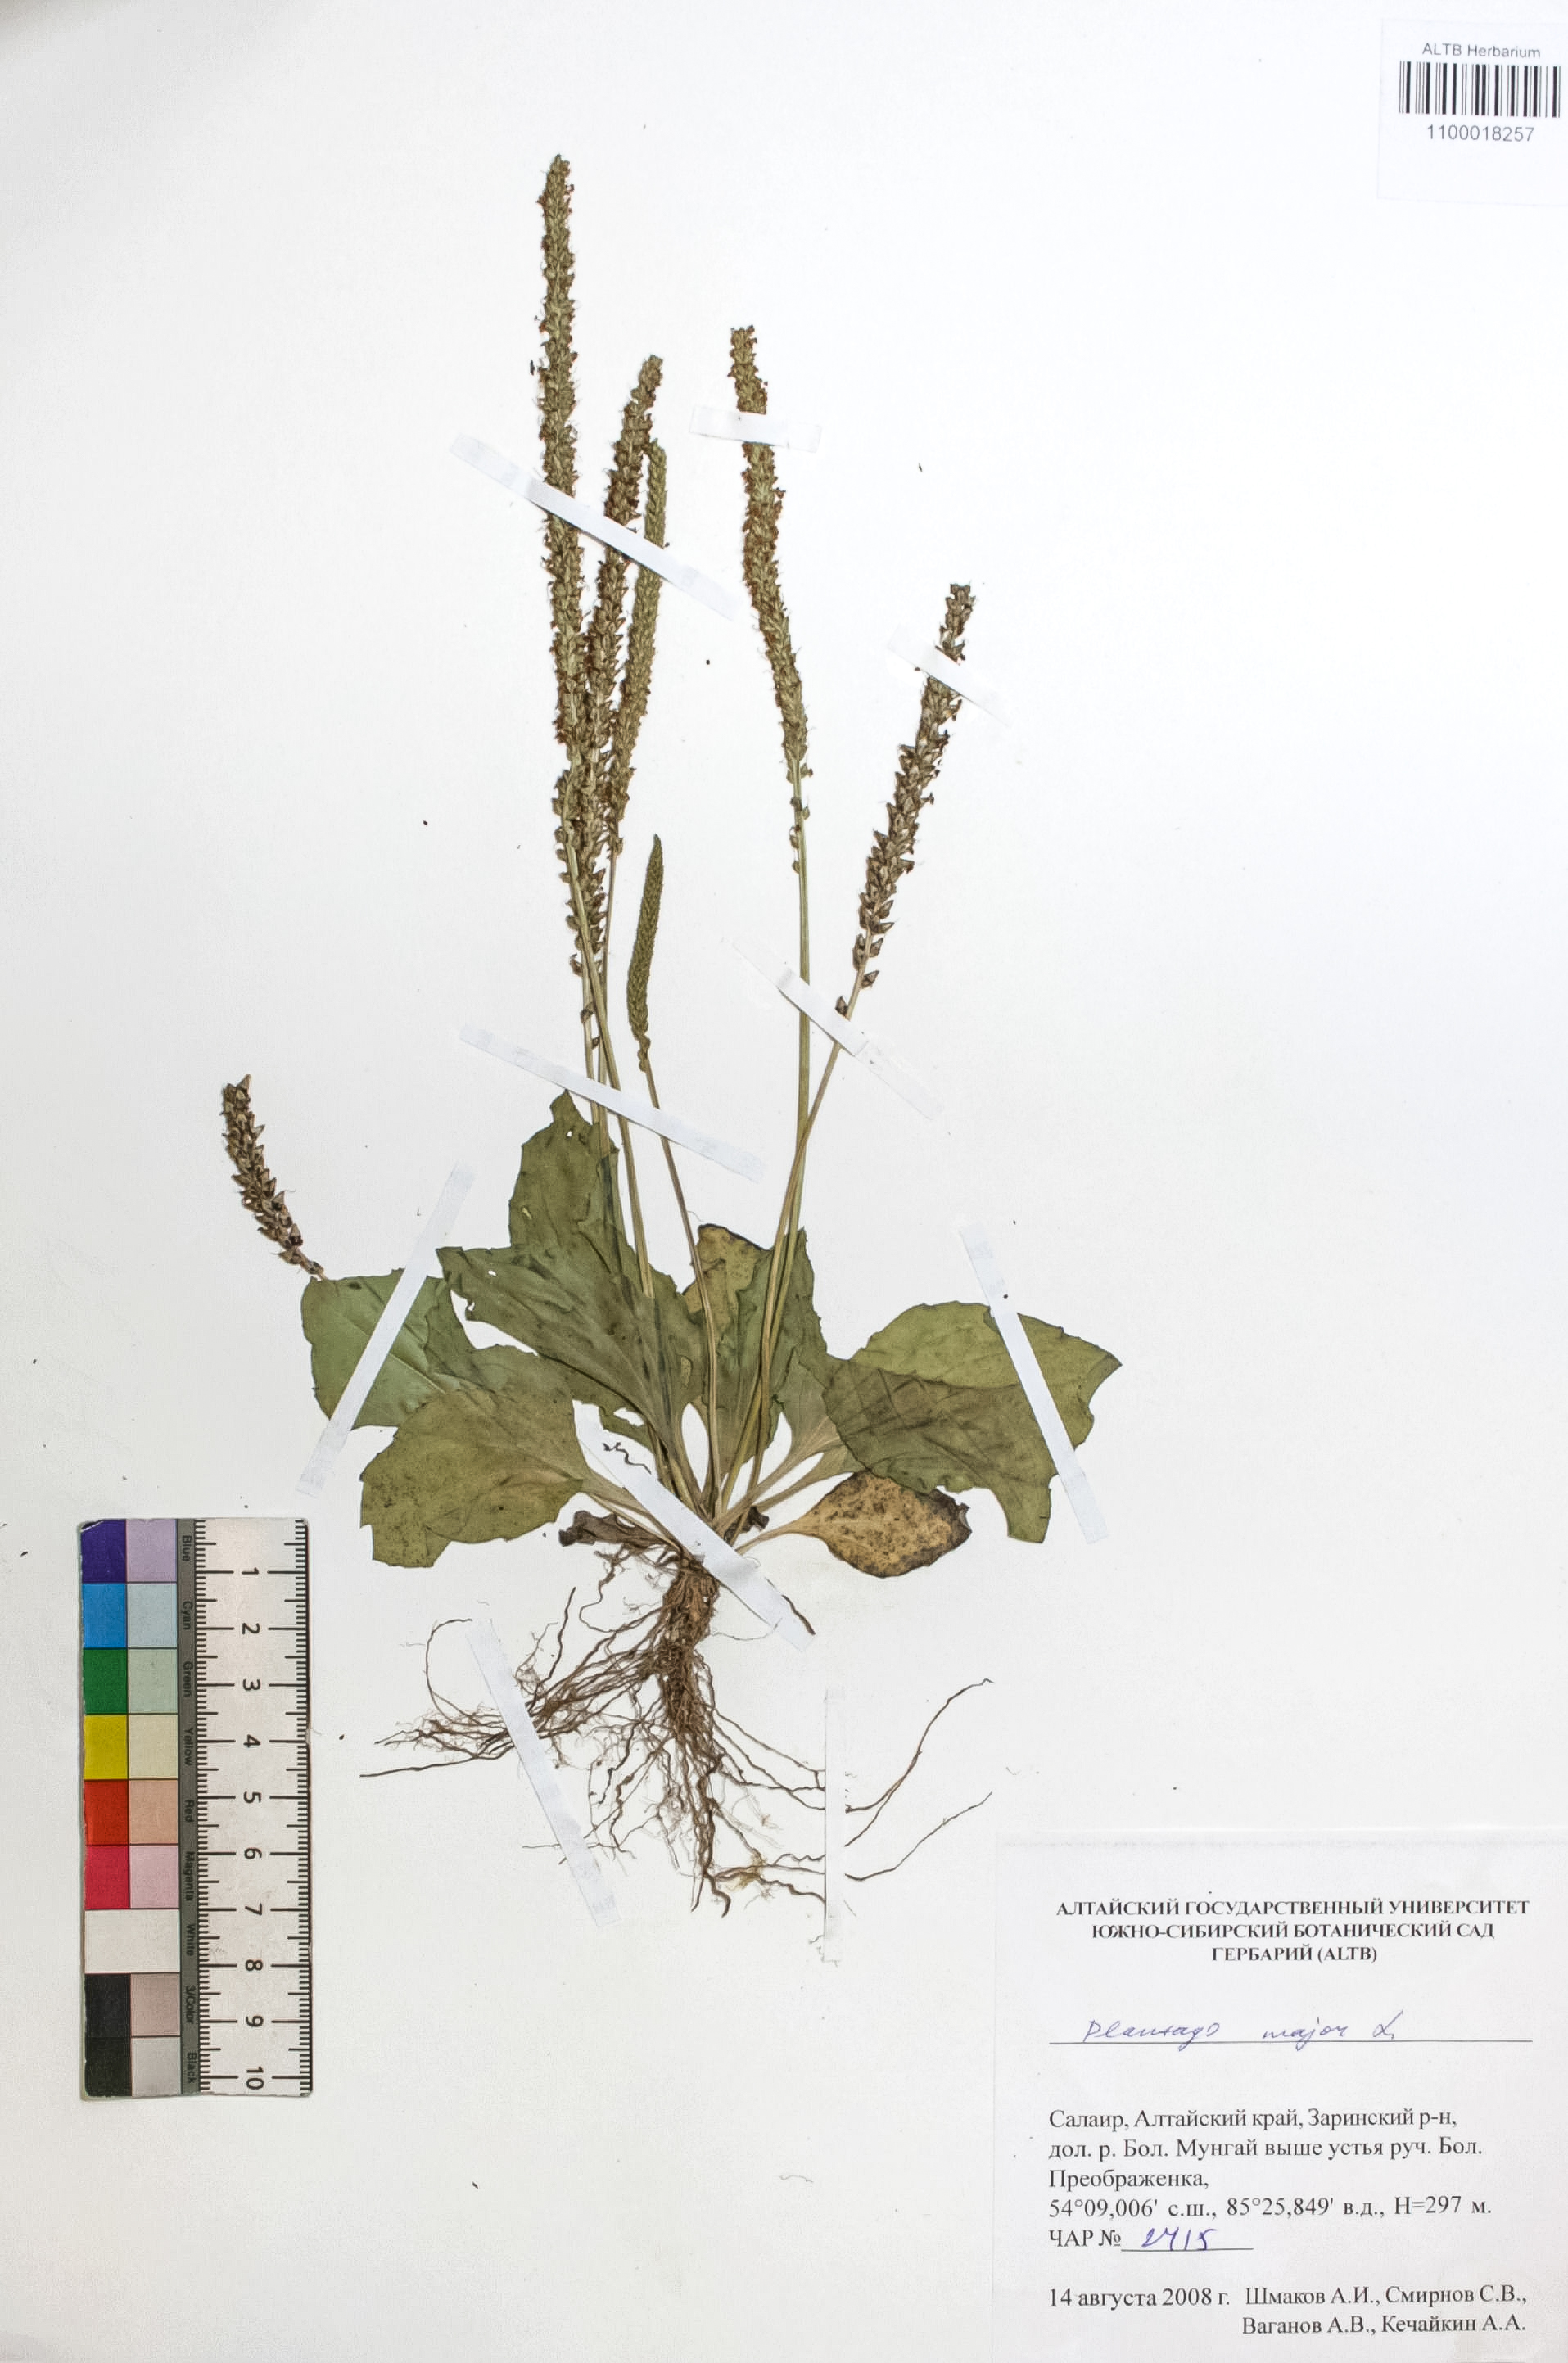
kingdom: Plantae
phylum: Tracheophyta
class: Magnoliopsida
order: Lamiales
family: Plantaginaceae
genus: Plantago
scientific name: Plantago major
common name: Common plantain
